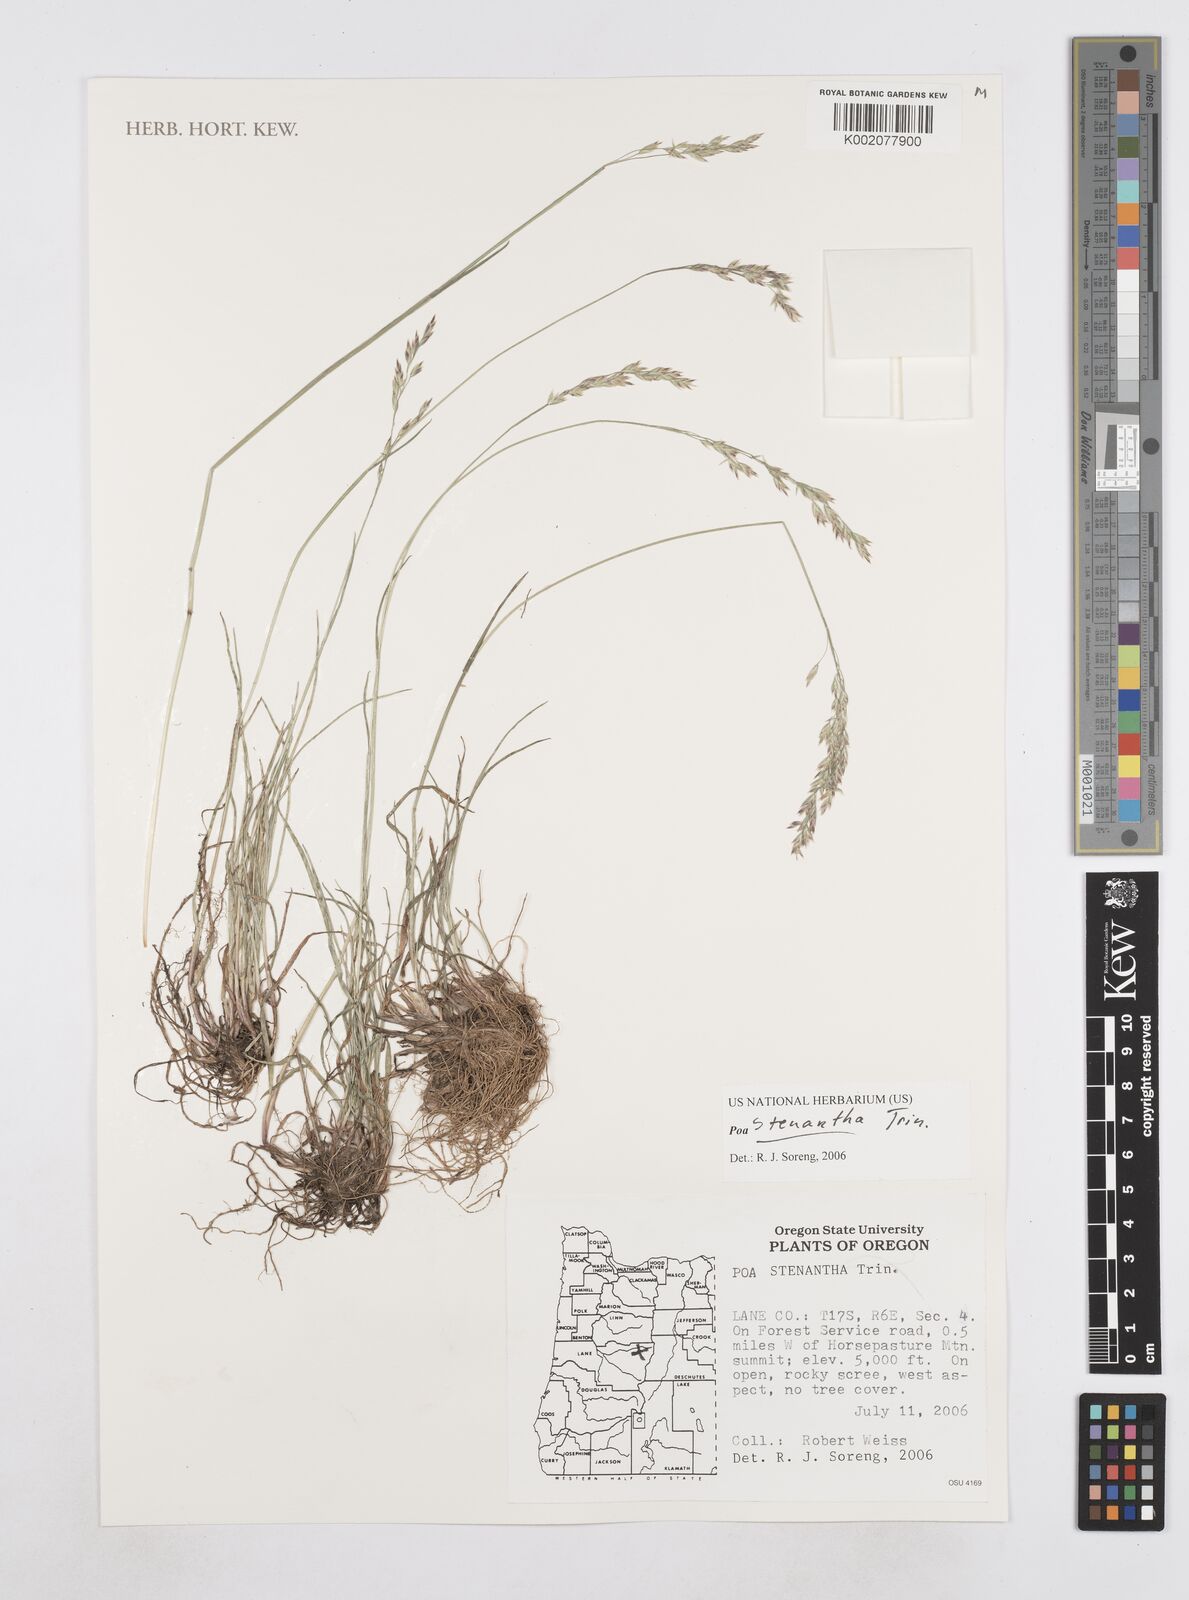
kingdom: Plantae
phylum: Tracheophyta
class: Liliopsida
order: Poales
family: Poaceae
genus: Poa
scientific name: Poa stenantha
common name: Narrow-flowered bluegrass
